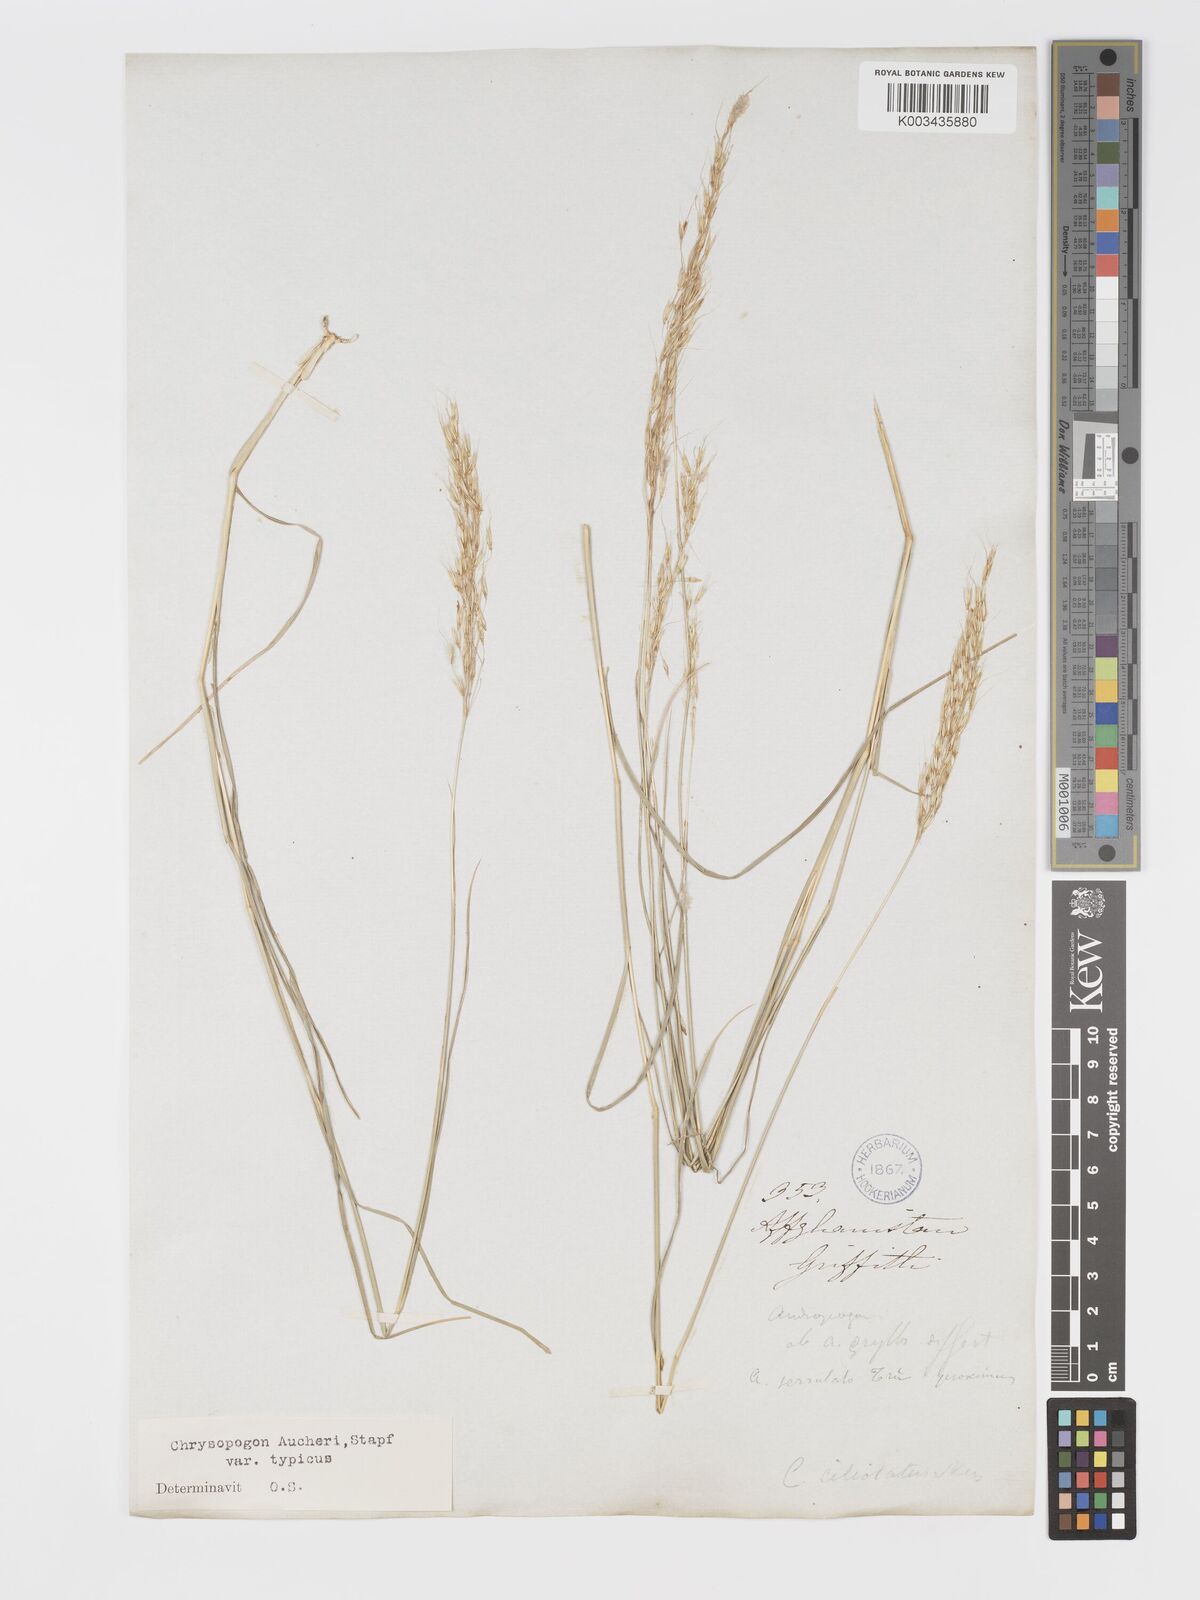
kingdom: Plantae
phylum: Tracheophyta
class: Liliopsida
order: Poales
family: Poaceae
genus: Chrysopogon
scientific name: Chrysopogon serrulatus
